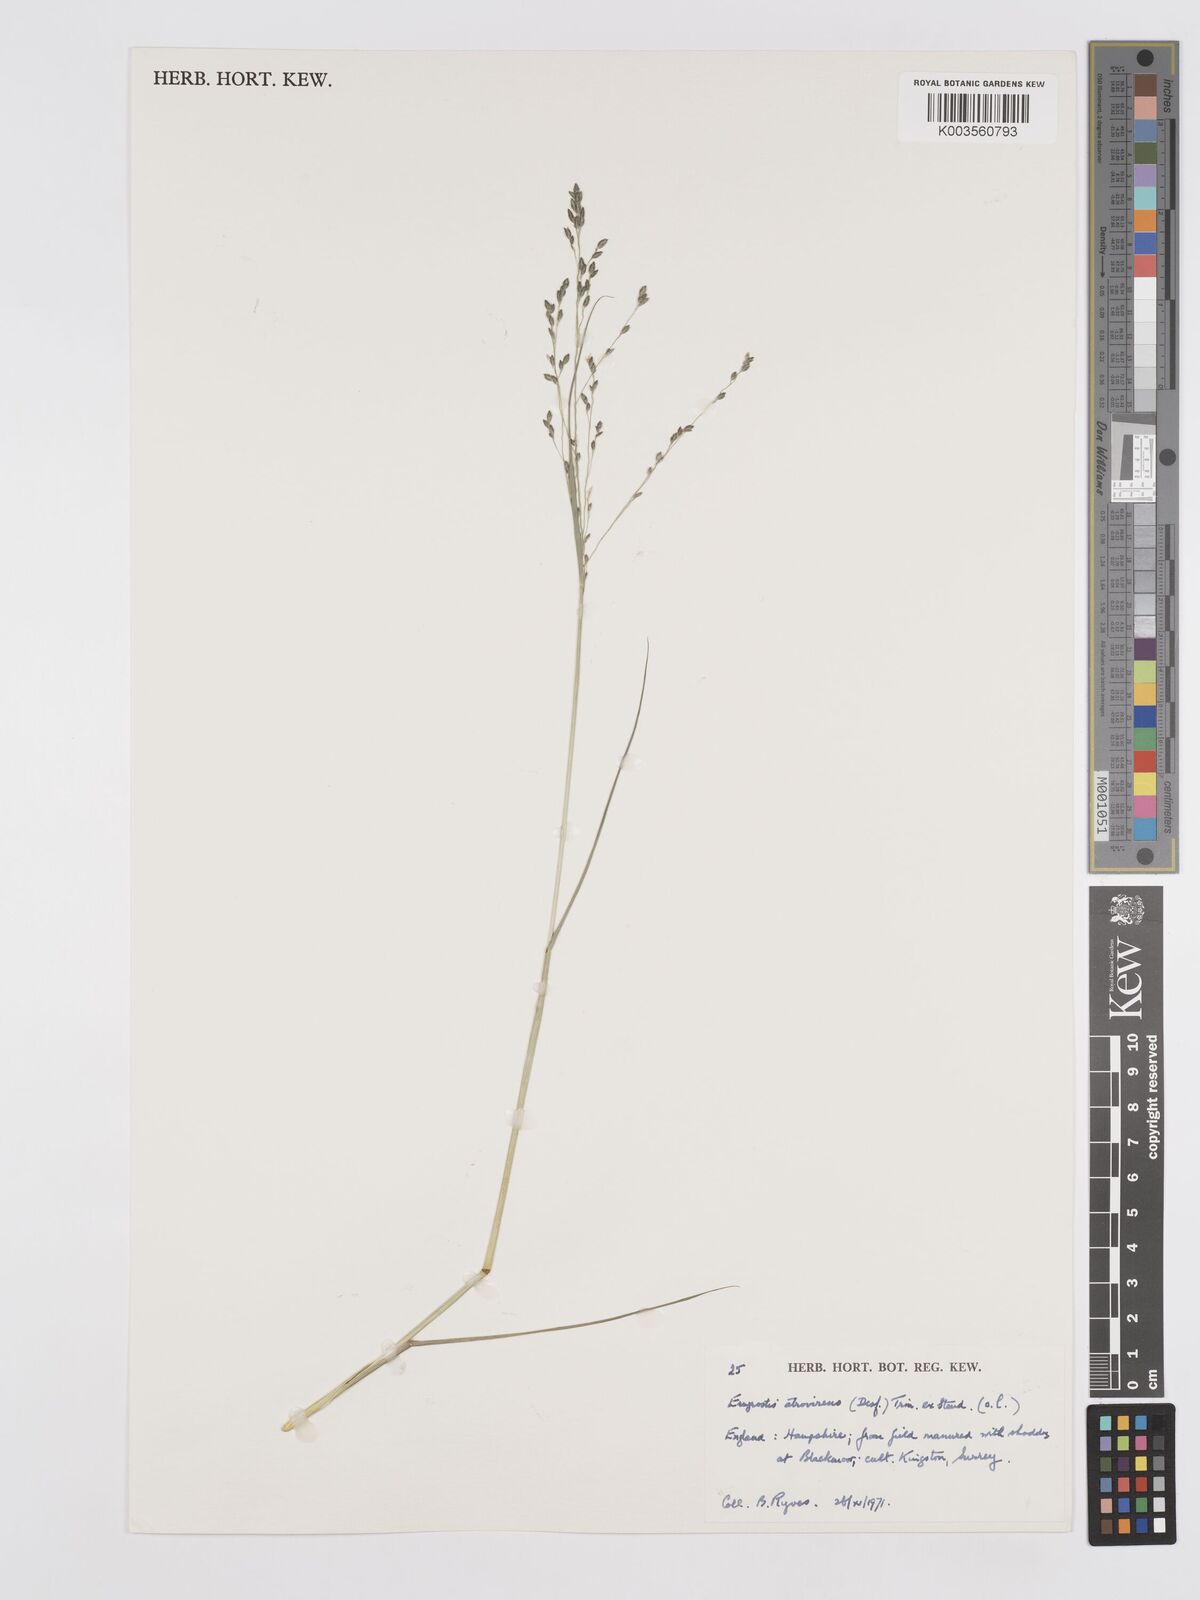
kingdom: Plantae
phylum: Tracheophyta
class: Liliopsida
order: Poales
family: Poaceae
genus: Eragrostis
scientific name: Eragrostis atrovirens
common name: Thalia lovegrass
